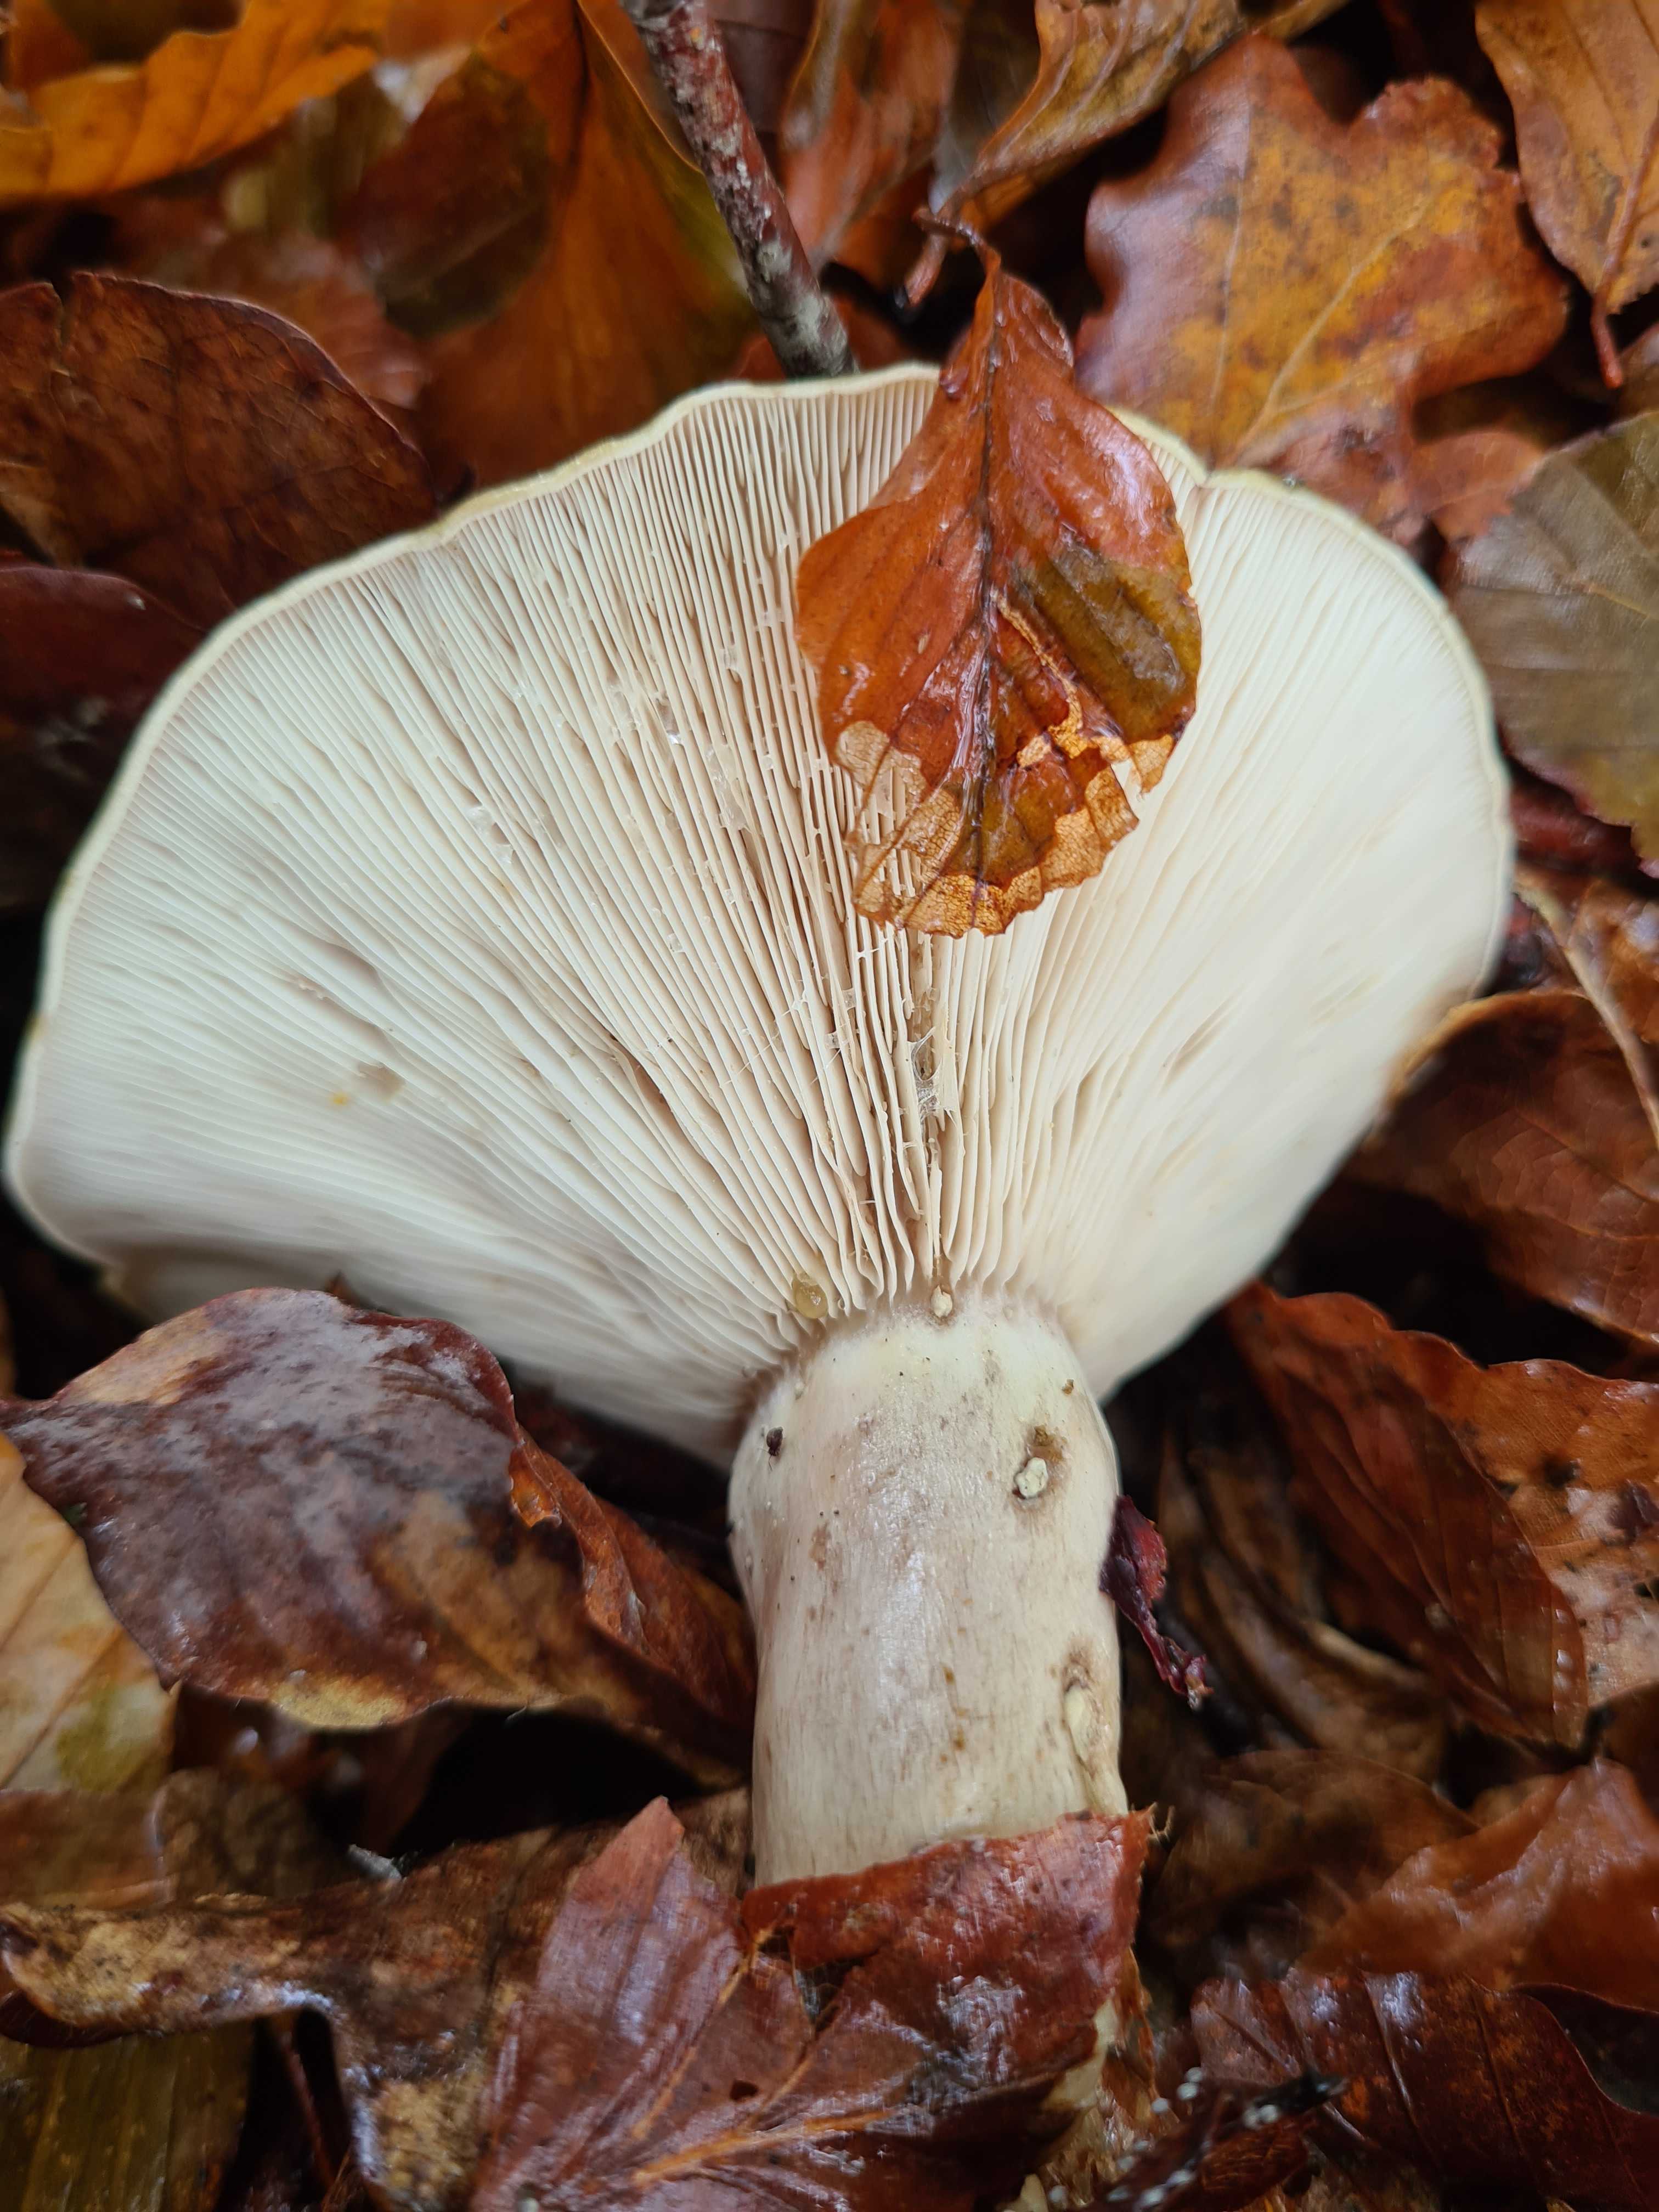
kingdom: Fungi
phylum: Basidiomycota
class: Agaricomycetes
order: Russulales
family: Russulaceae
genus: Lactarius
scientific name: Lactarius blennius
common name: dråbeplettet mælkehat
